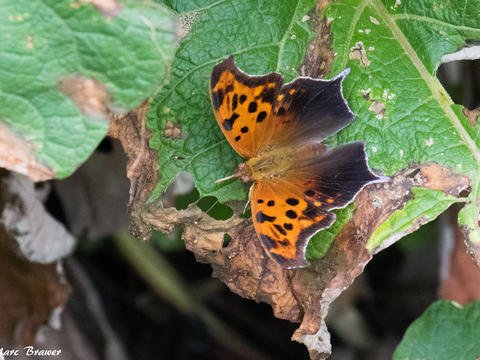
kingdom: Animalia
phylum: Arthropoda
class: Insecta
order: Lepidoptera
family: Nymphalidae
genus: Polygonia
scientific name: Polygonia interrogationis
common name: Question Mark
